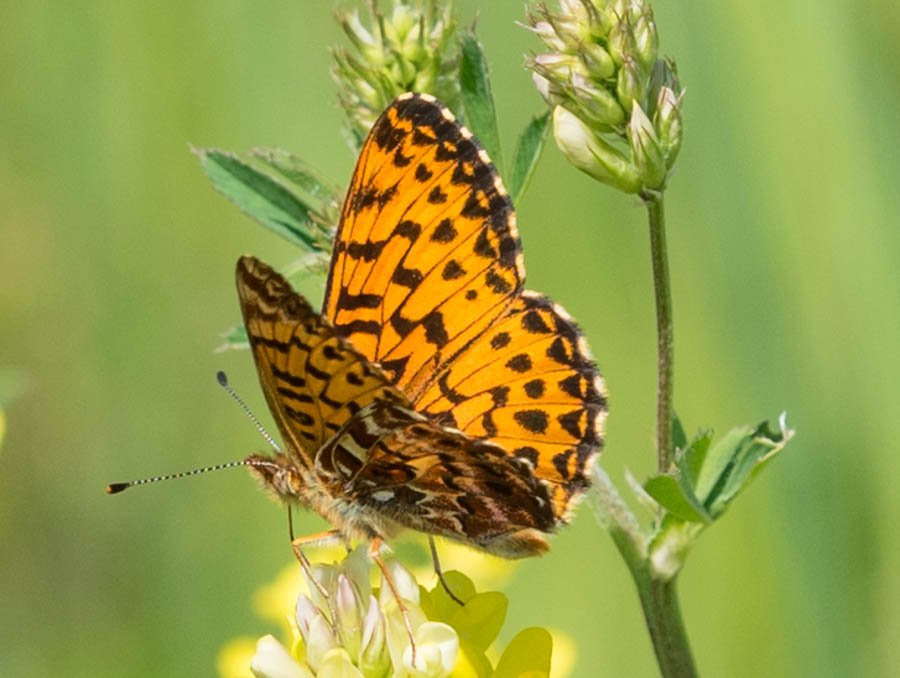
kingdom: Animalia
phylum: Arthropoda
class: Insecta
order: Lepidoptera
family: Nymphalidae
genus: Boloria
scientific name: Boloria chariclea
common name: Arctic Fritillary
